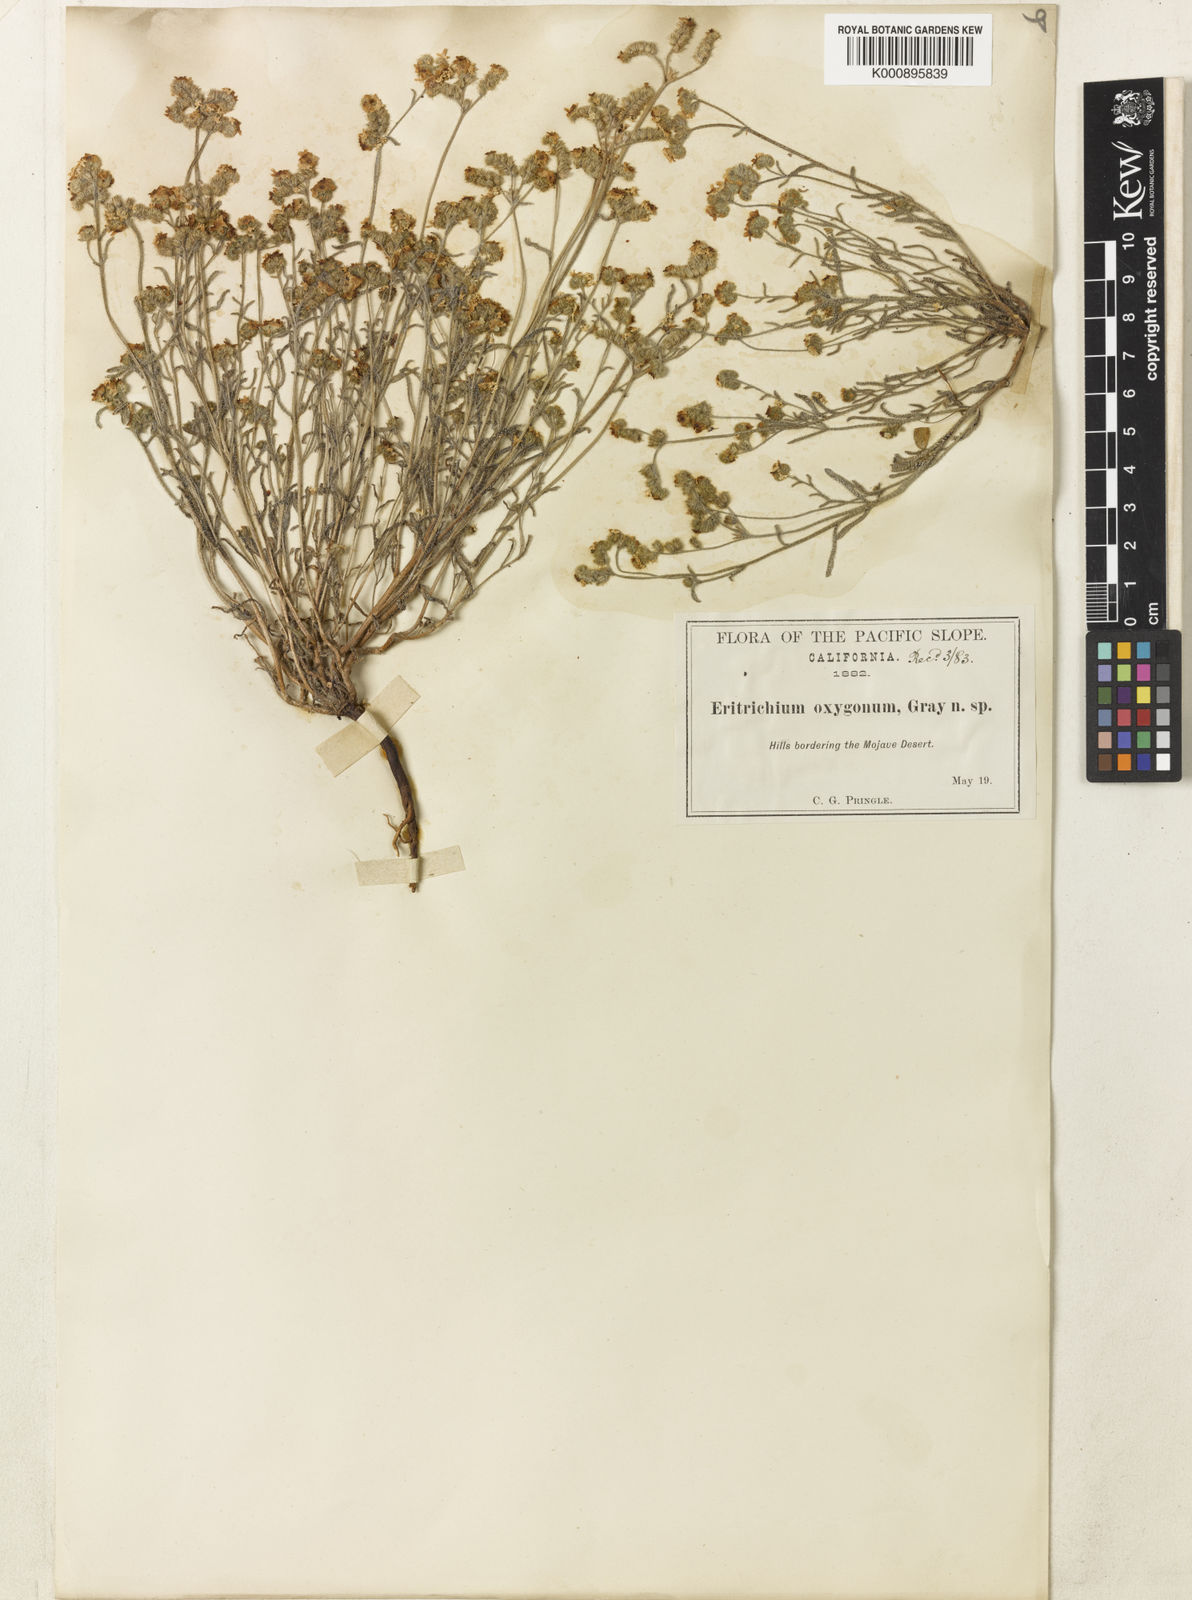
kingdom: Plantae
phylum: Tracheophyta
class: Magnoliopsida
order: Boraginales
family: Boraginaceae
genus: Cryptantha
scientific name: Cryptantha oxygona
